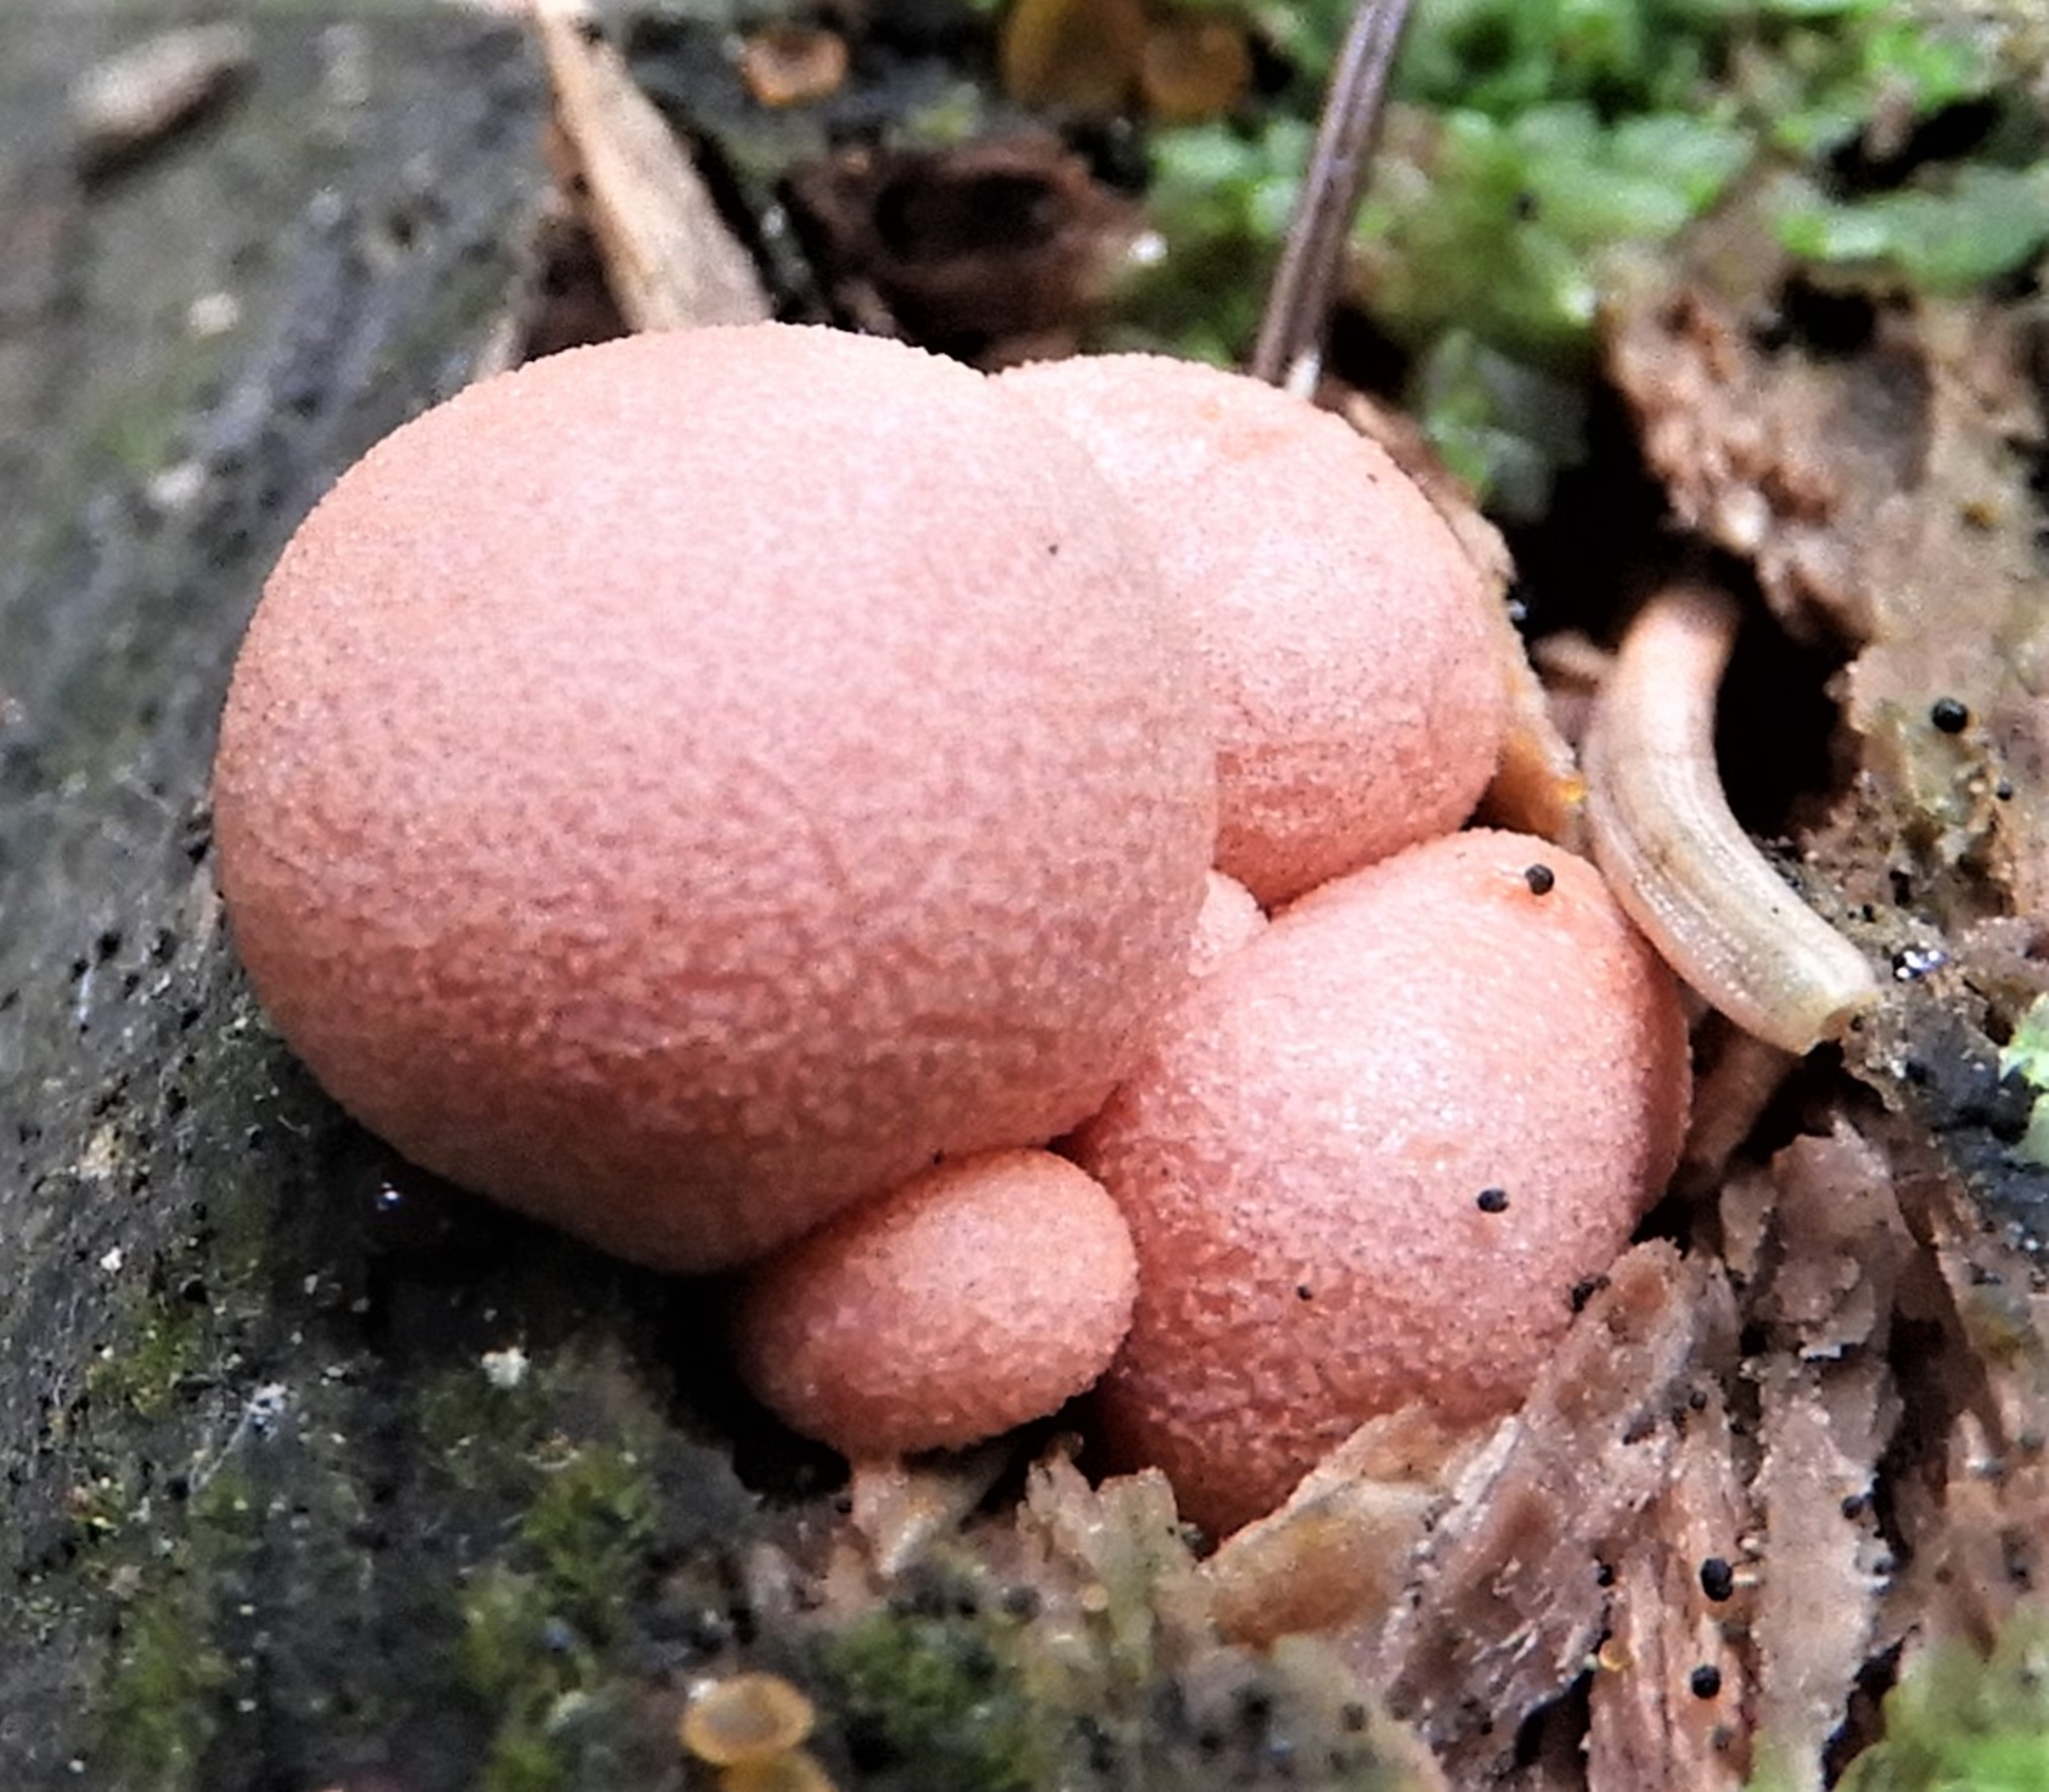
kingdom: Protozoa
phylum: Mycetozoa
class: Myxomycetes
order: Cribrariales
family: Tubiferaceae
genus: Lycogala
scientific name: Lycogala epidendrum
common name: Almindelig rødært
